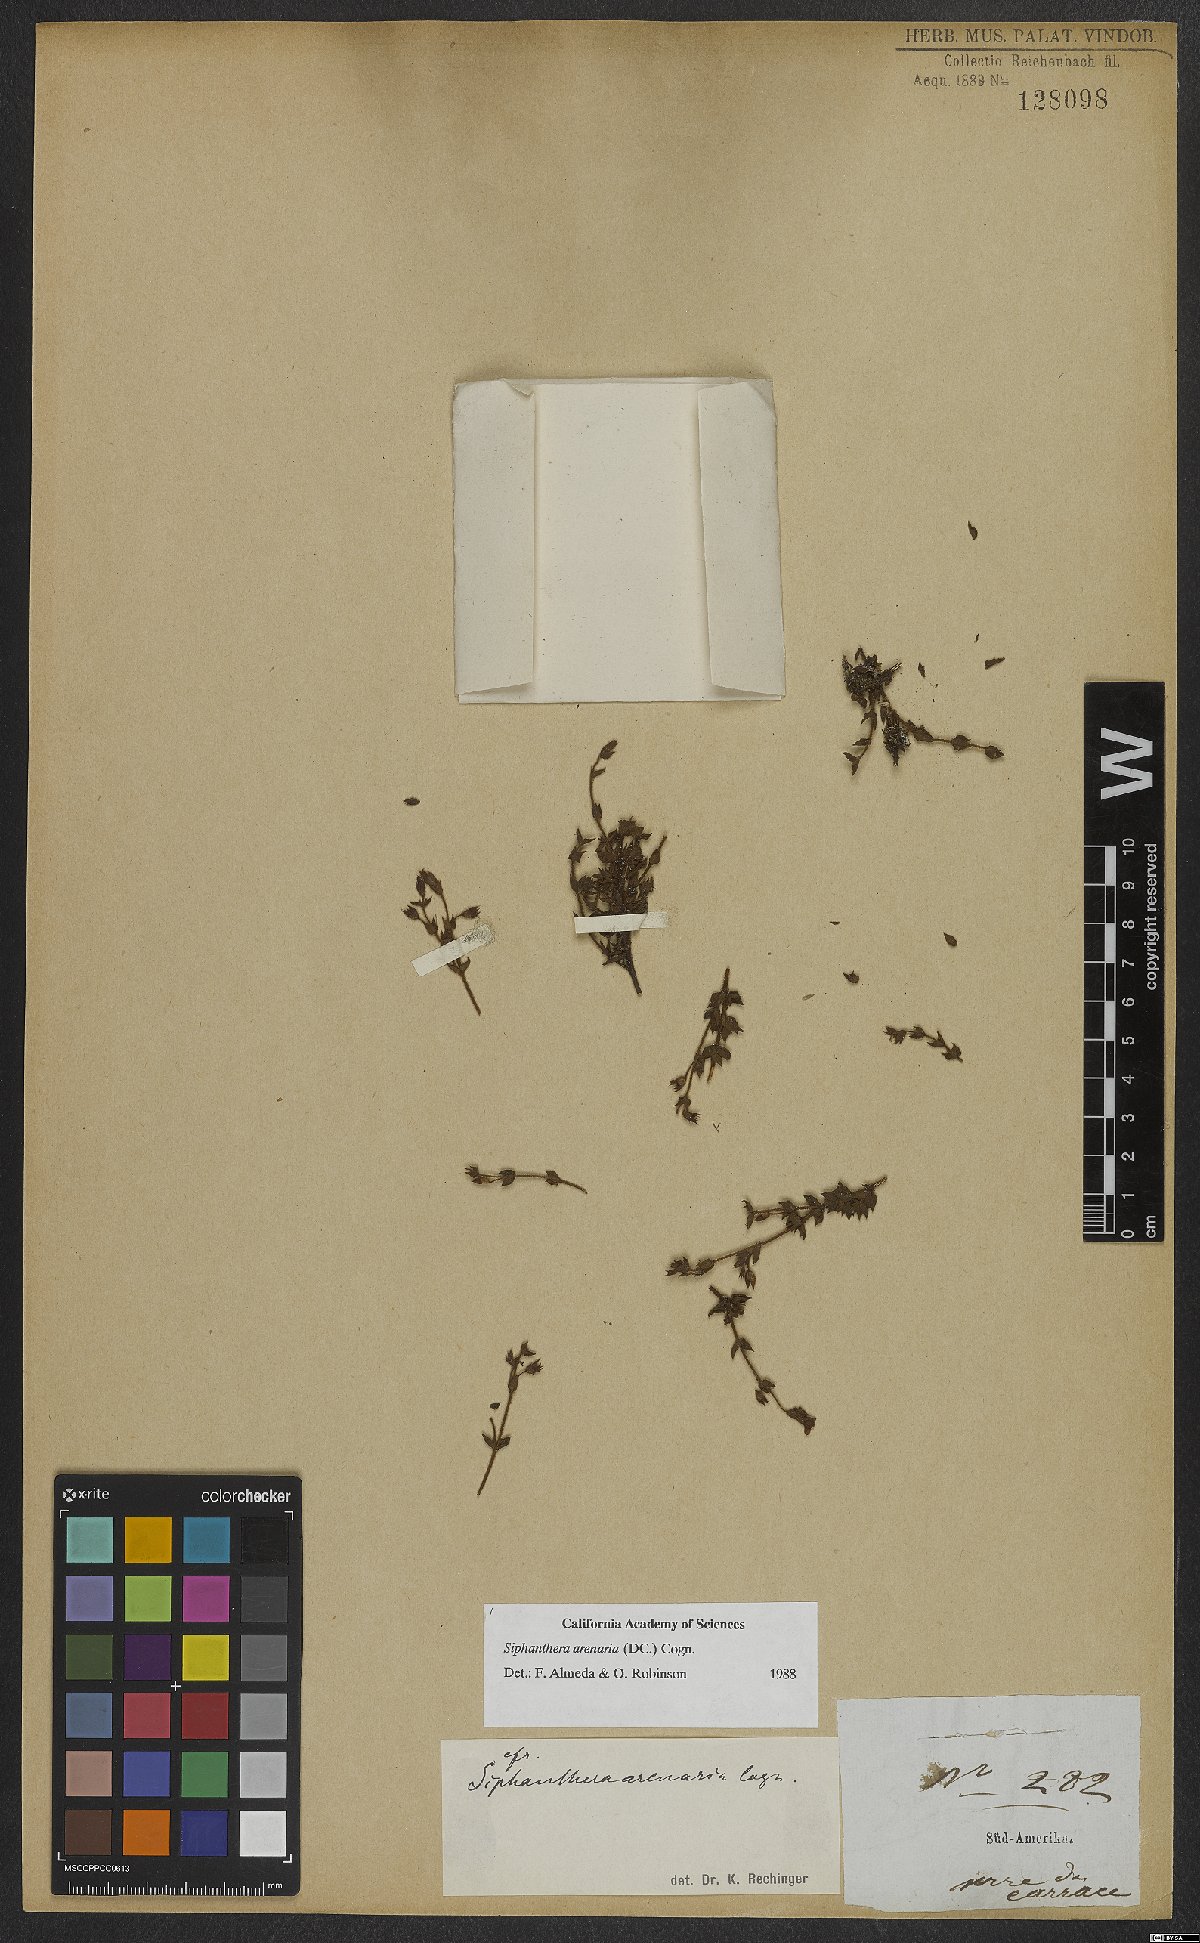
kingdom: Plantae
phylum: Tracheophyta
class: Magnoliopsida
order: Myrtales
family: Melastomataceae
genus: Siphanthera
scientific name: Siphanthera arenaria
